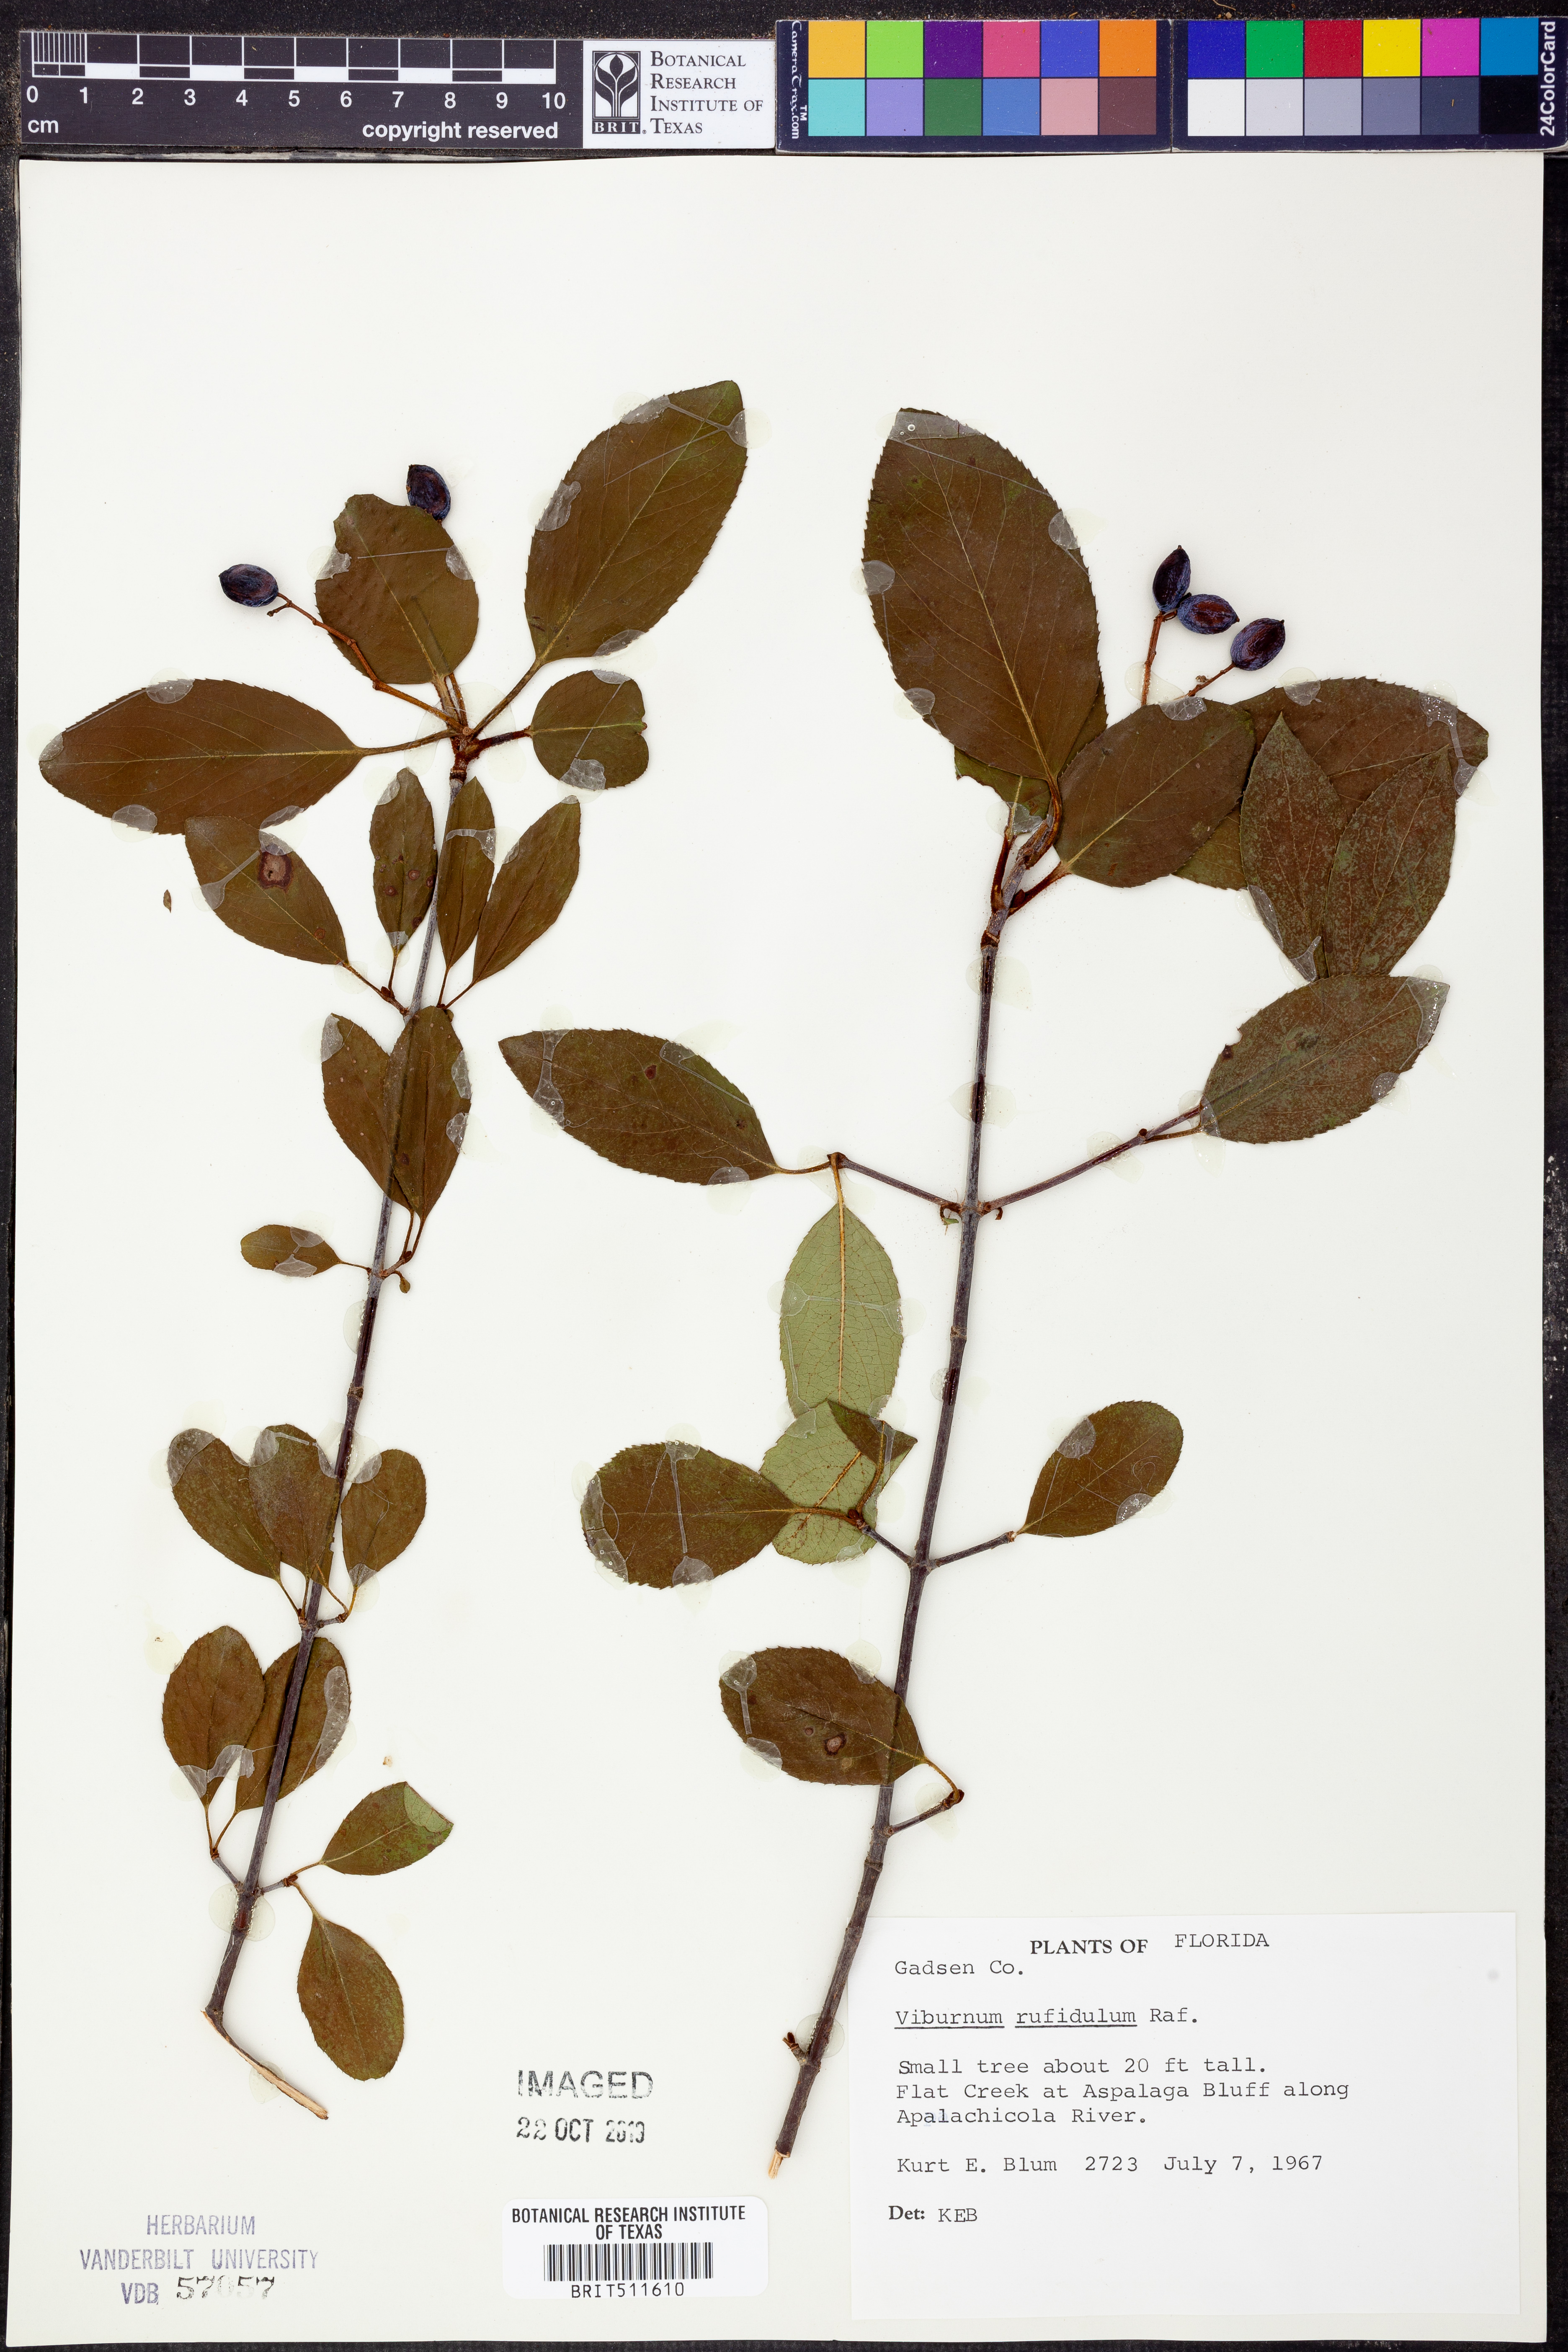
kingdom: Plantae
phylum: Tracheophyta
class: Magnoliopsida
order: Dipsacales
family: Viburnaceae
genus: Viburnum
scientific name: Viburnum rufidulum
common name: Blue haw
